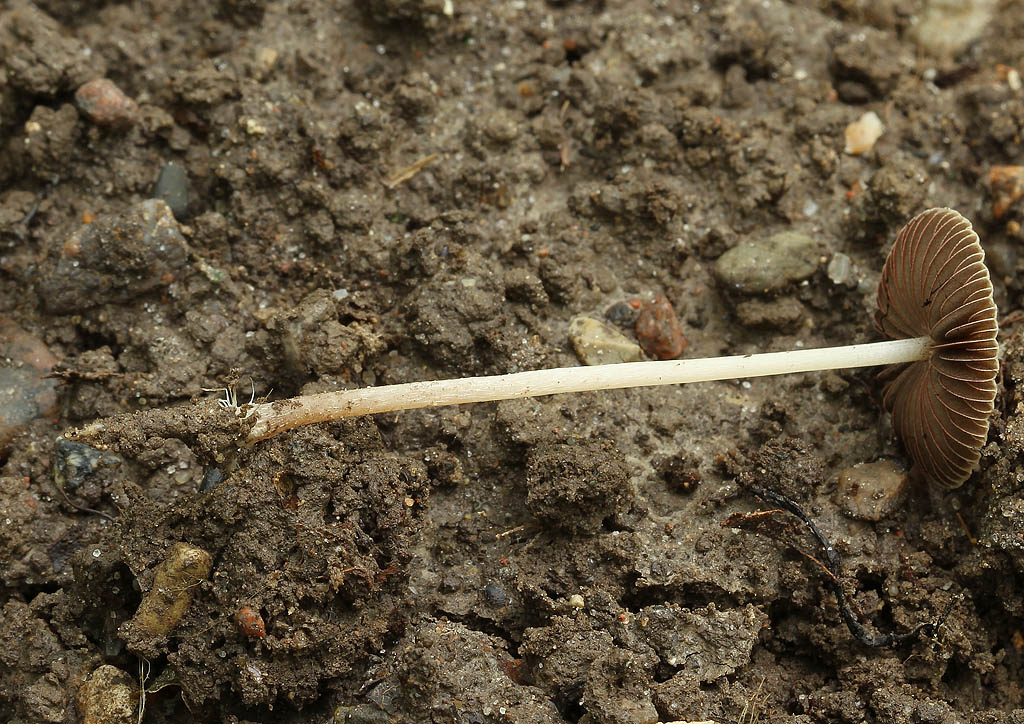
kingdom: Fungi
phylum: Basidiomycota
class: Agaricomycetes
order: Agaricales
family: Psathyrellaceae
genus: Psathyrella
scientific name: Psathyrella microrhiza
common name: rod-mørkhat
